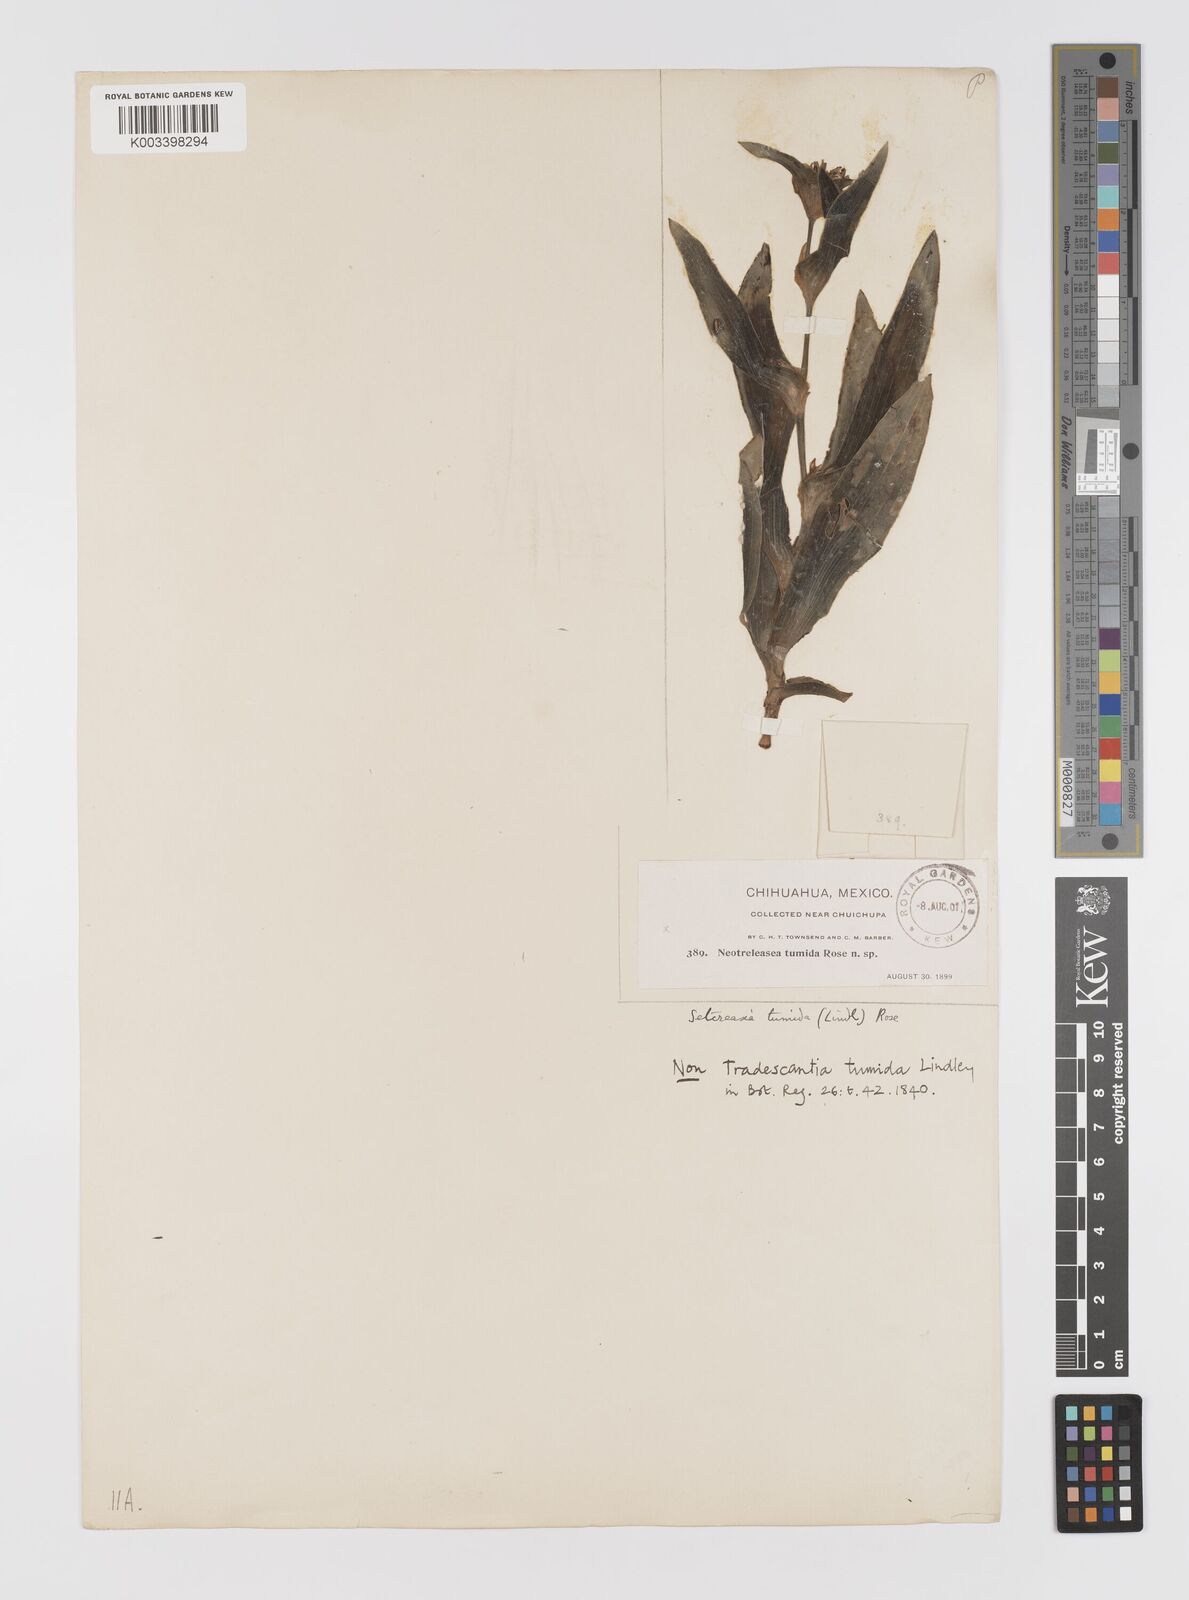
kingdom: Plantae
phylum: Tracheophyta
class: Liliopsida
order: Commelinales
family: Commelinaceae
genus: Tradescantia
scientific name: Tradescantia andrieuxii
